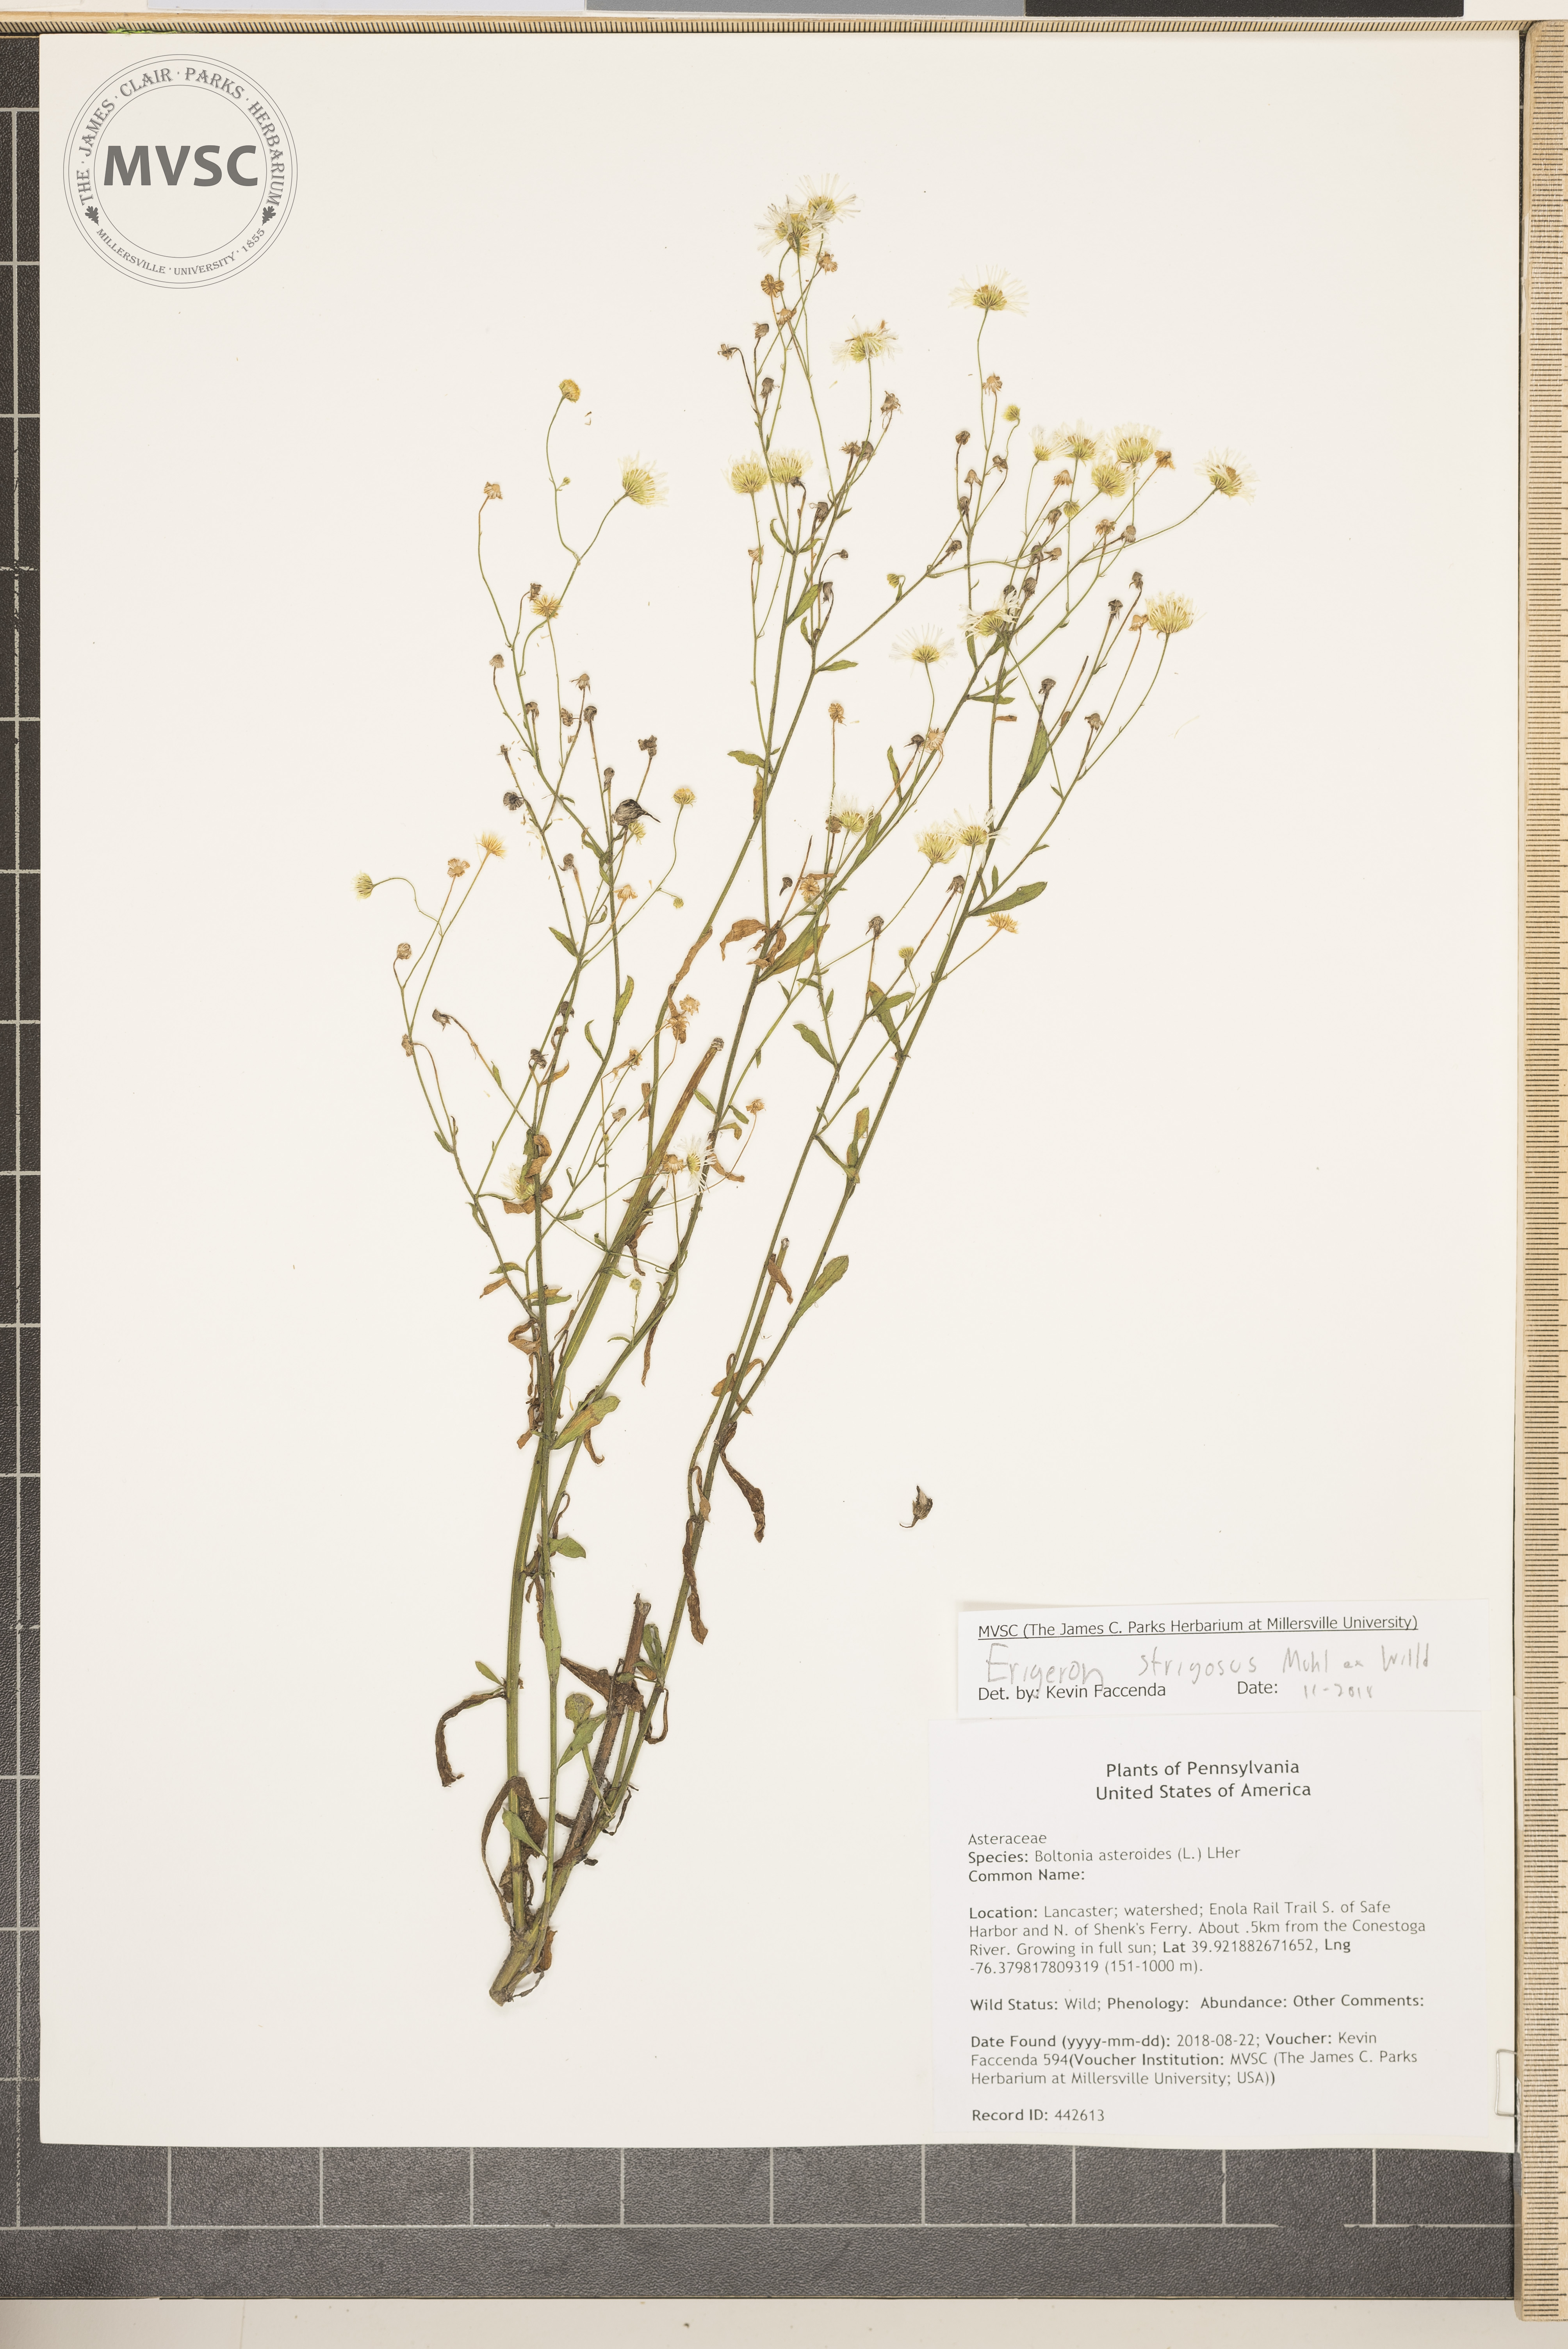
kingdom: Plantae
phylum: Tracheophyta
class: Magnoliopsida
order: Asterales
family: Asteraceae
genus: Erigeron
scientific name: Erigeron strigosus
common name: Common eastern fleabane
